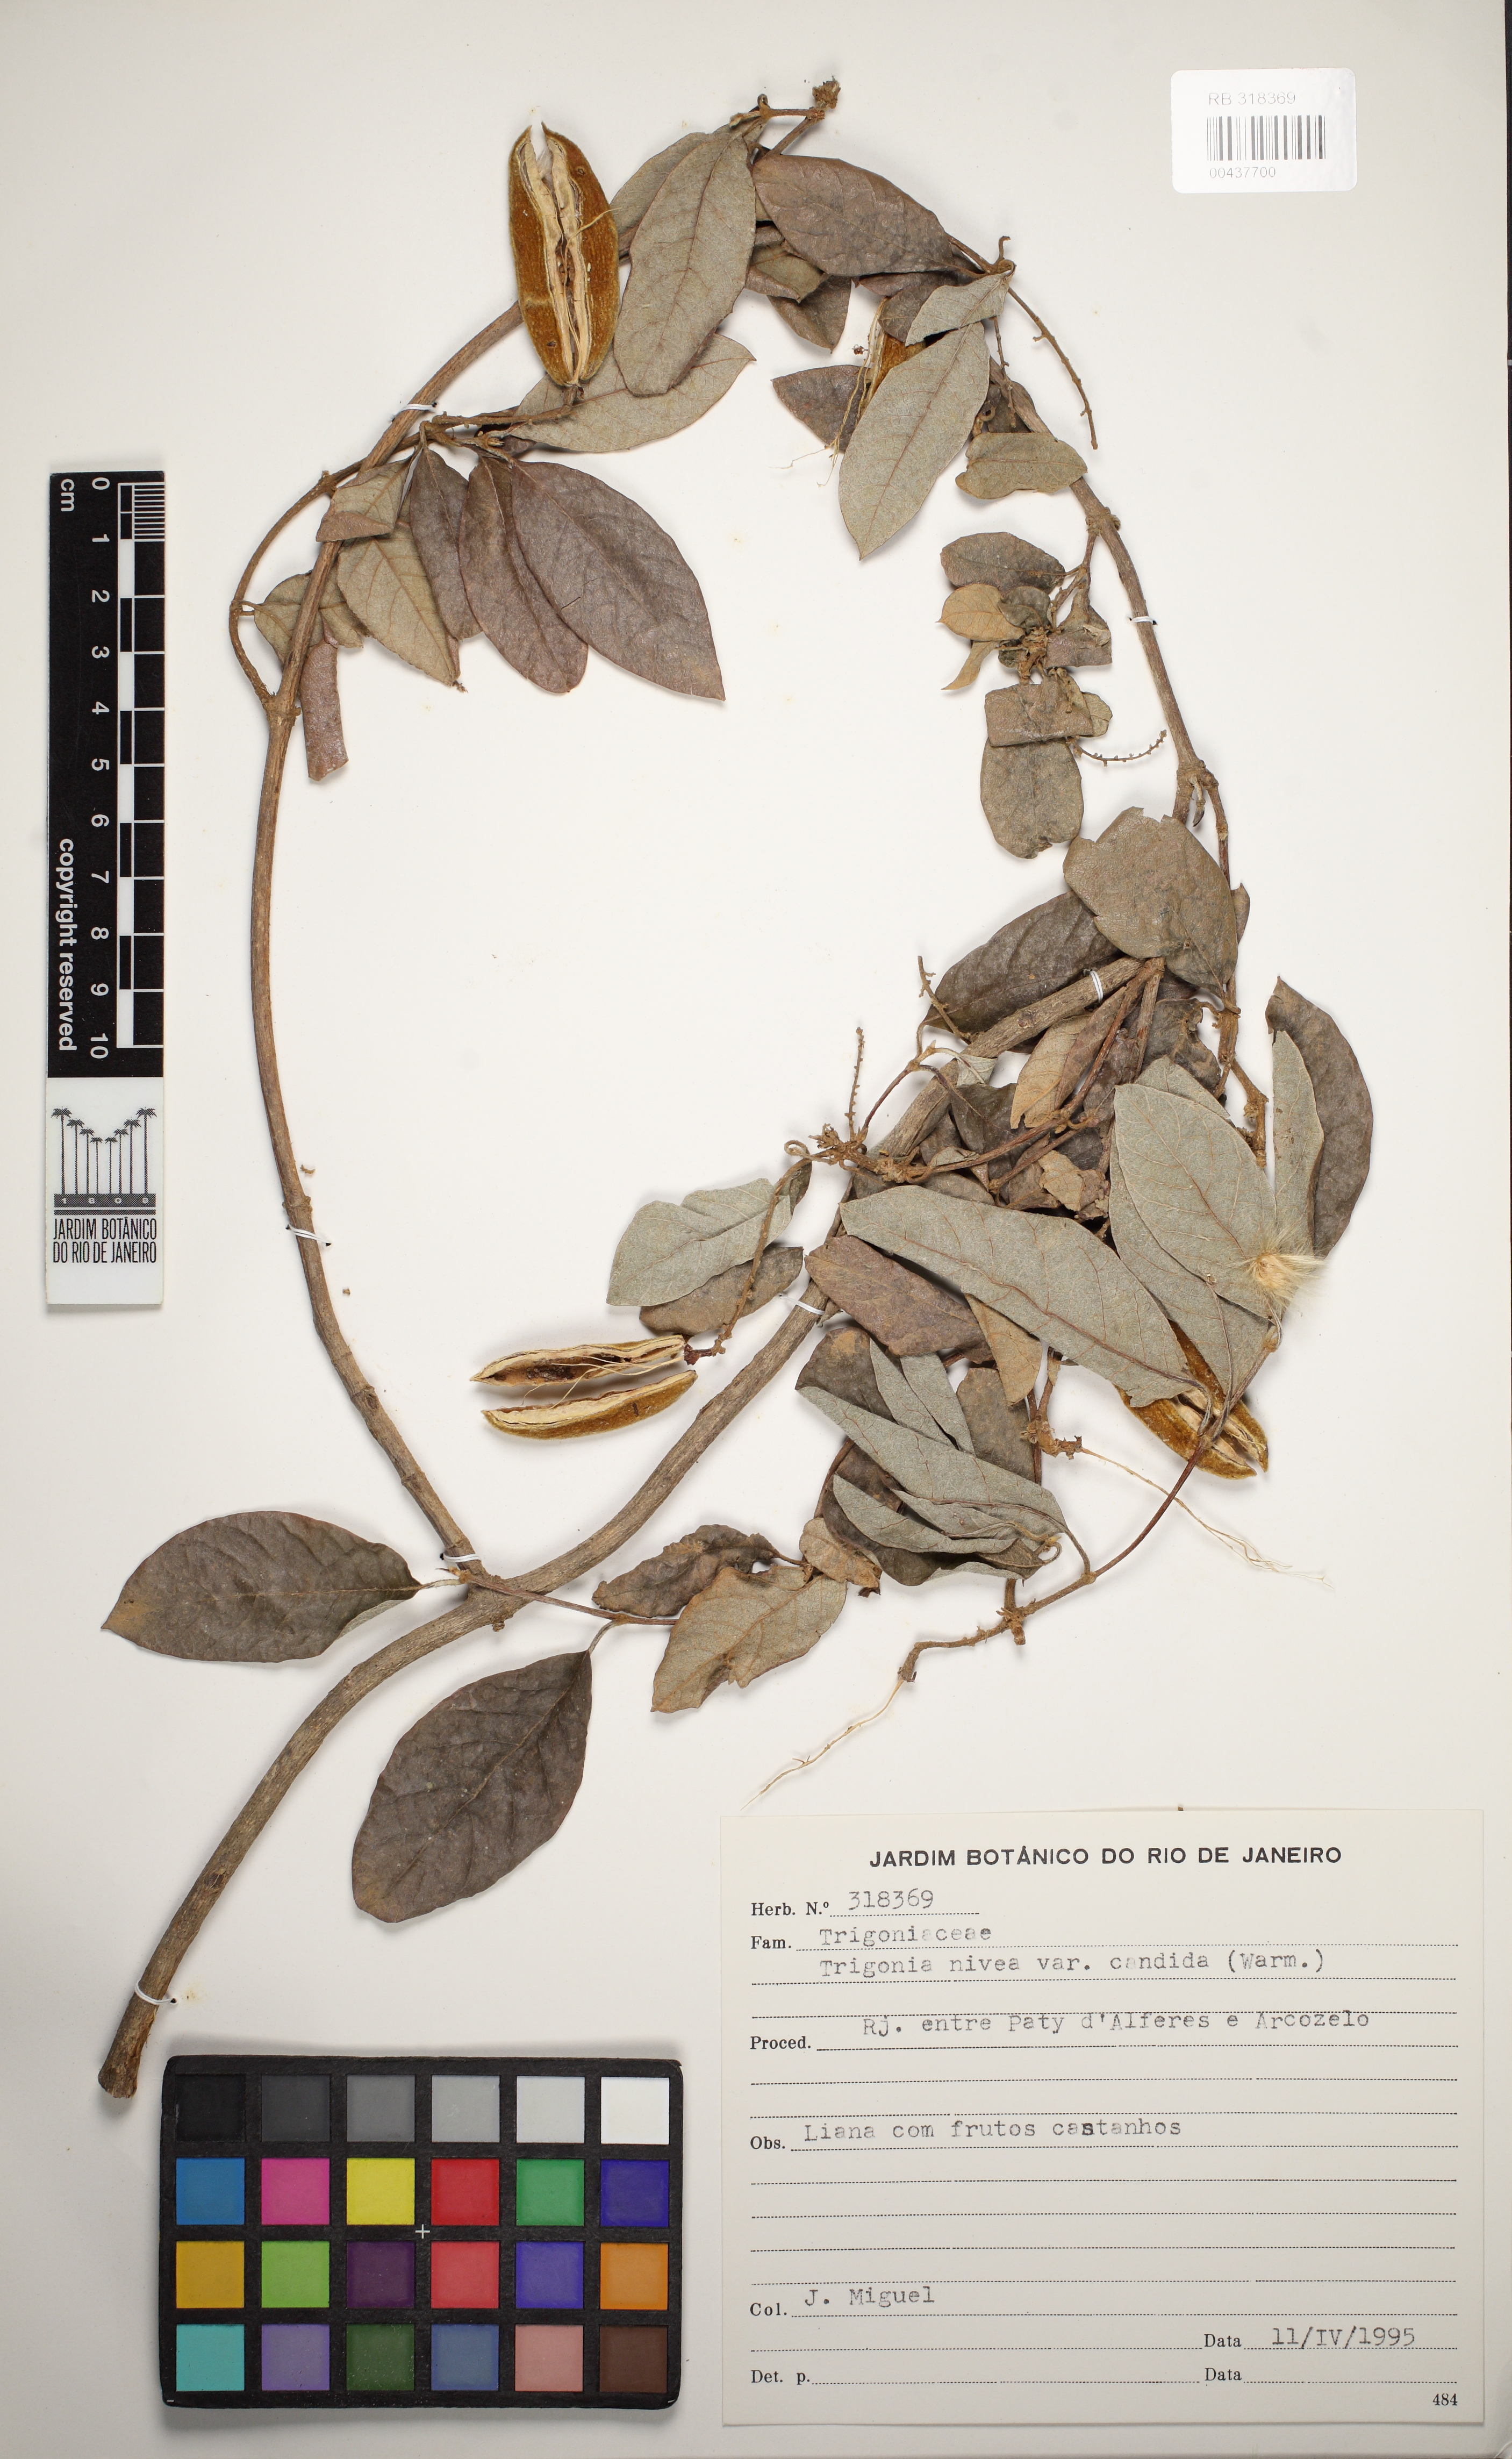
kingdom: Plantae
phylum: Tracheophyta
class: Magnoliopsida
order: Malpighiales
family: Trigoniaceae
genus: Trigonia
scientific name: Trigonia nivea
